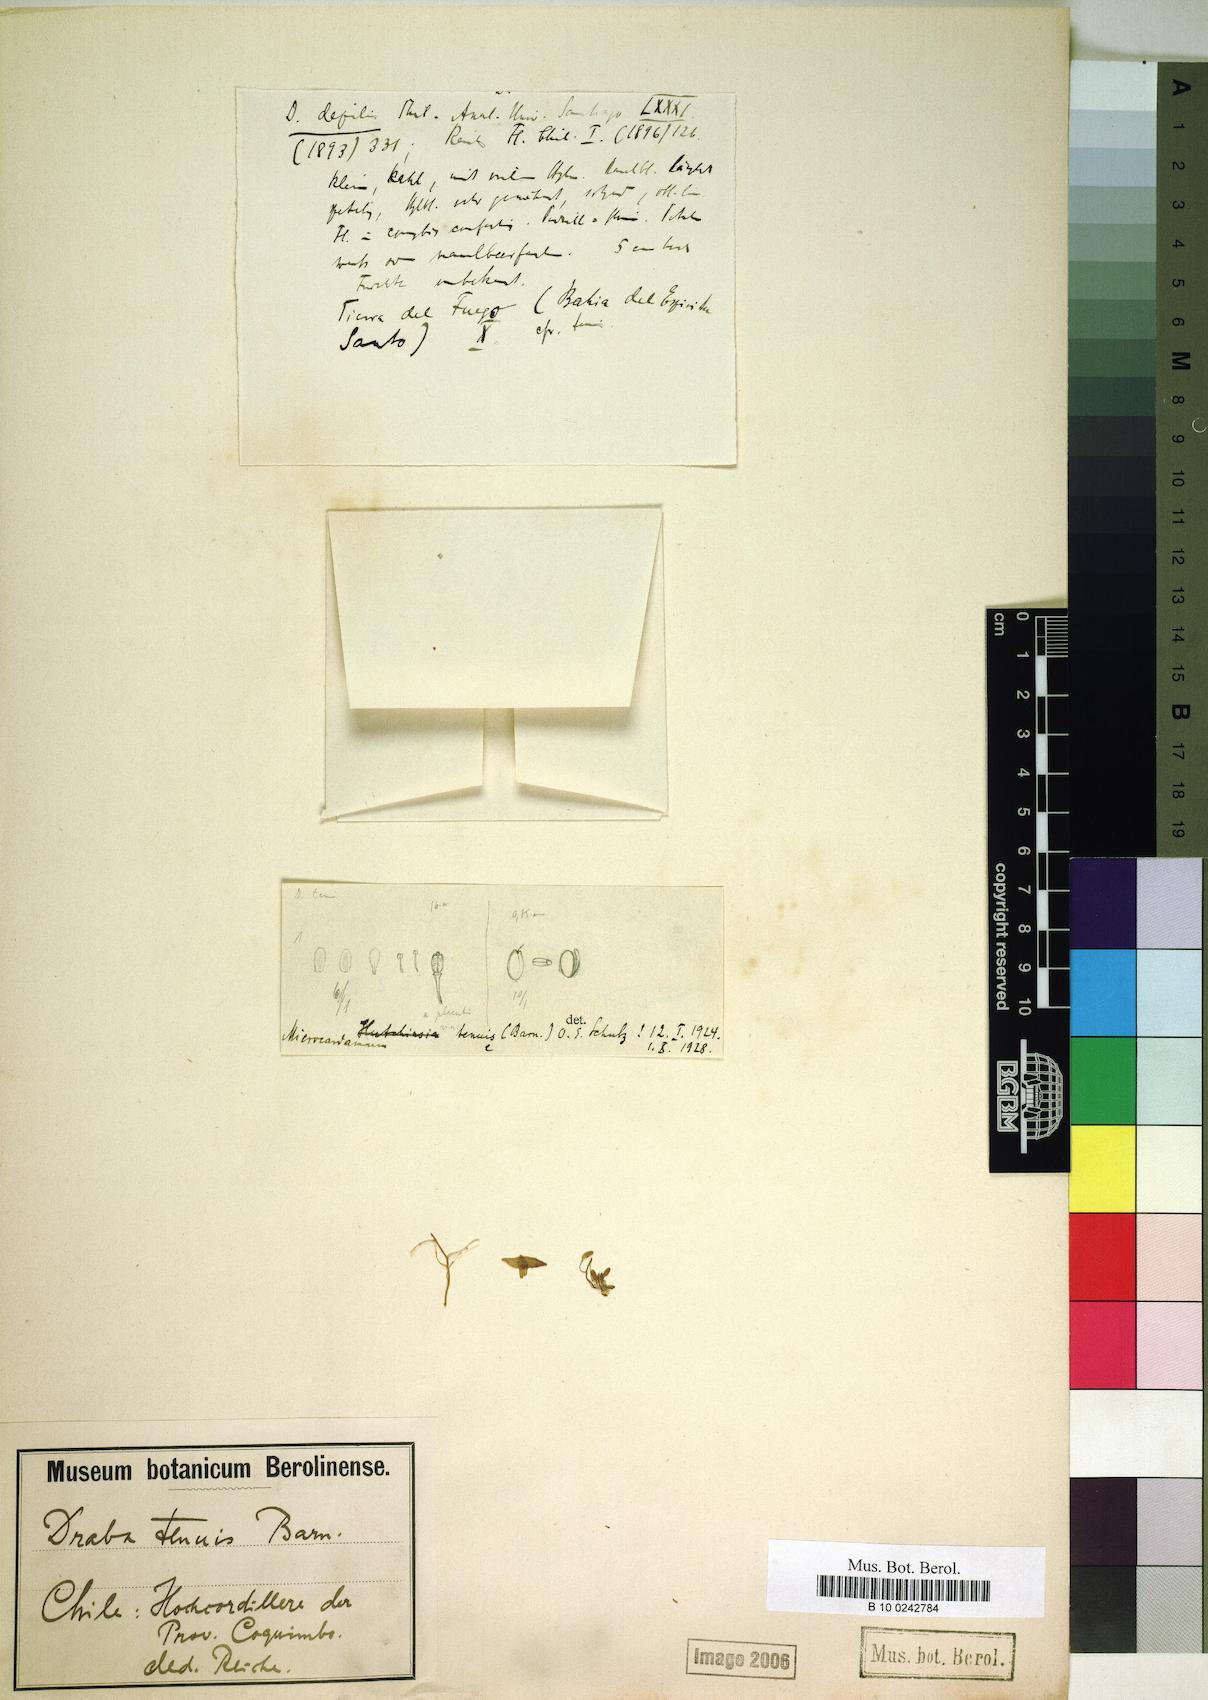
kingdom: Plantae
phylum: Tracheophyta
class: Magnoliopsida
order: Brassicales
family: Brassicaceae
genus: Hornungia
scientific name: Hornungia procumbens
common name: Oval purse
